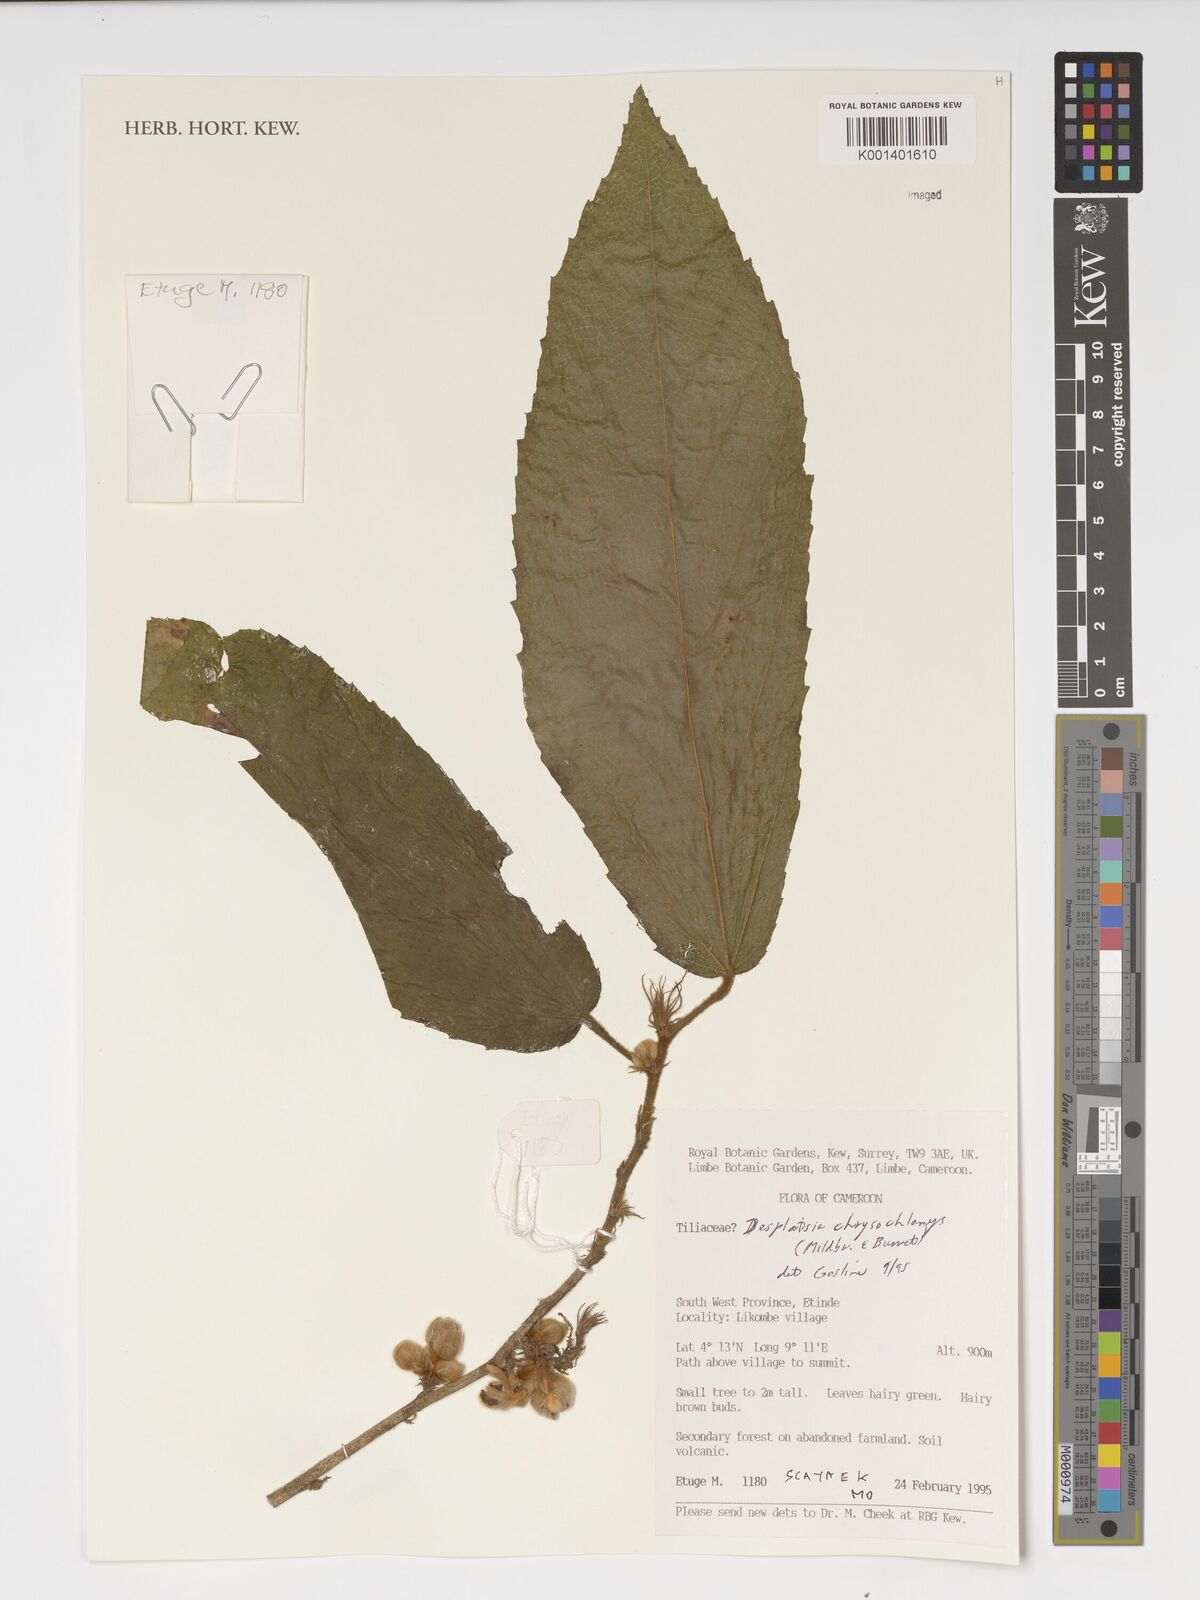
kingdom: Plantae
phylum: Tracheophyta
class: Magnoliopsida
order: Malvales
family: Malvaceae
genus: Desplatsia
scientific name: Desplatsia chrysochlamys
